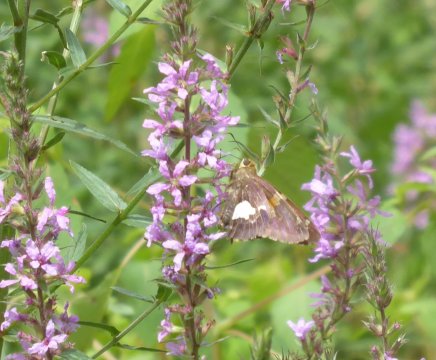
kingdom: Animalia
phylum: Arthropoda
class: Insecta
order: Lepidoptera
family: Hesperiidae
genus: Epargyreus
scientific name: Epargyreus clarus
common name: Silver-spotted Skipper
